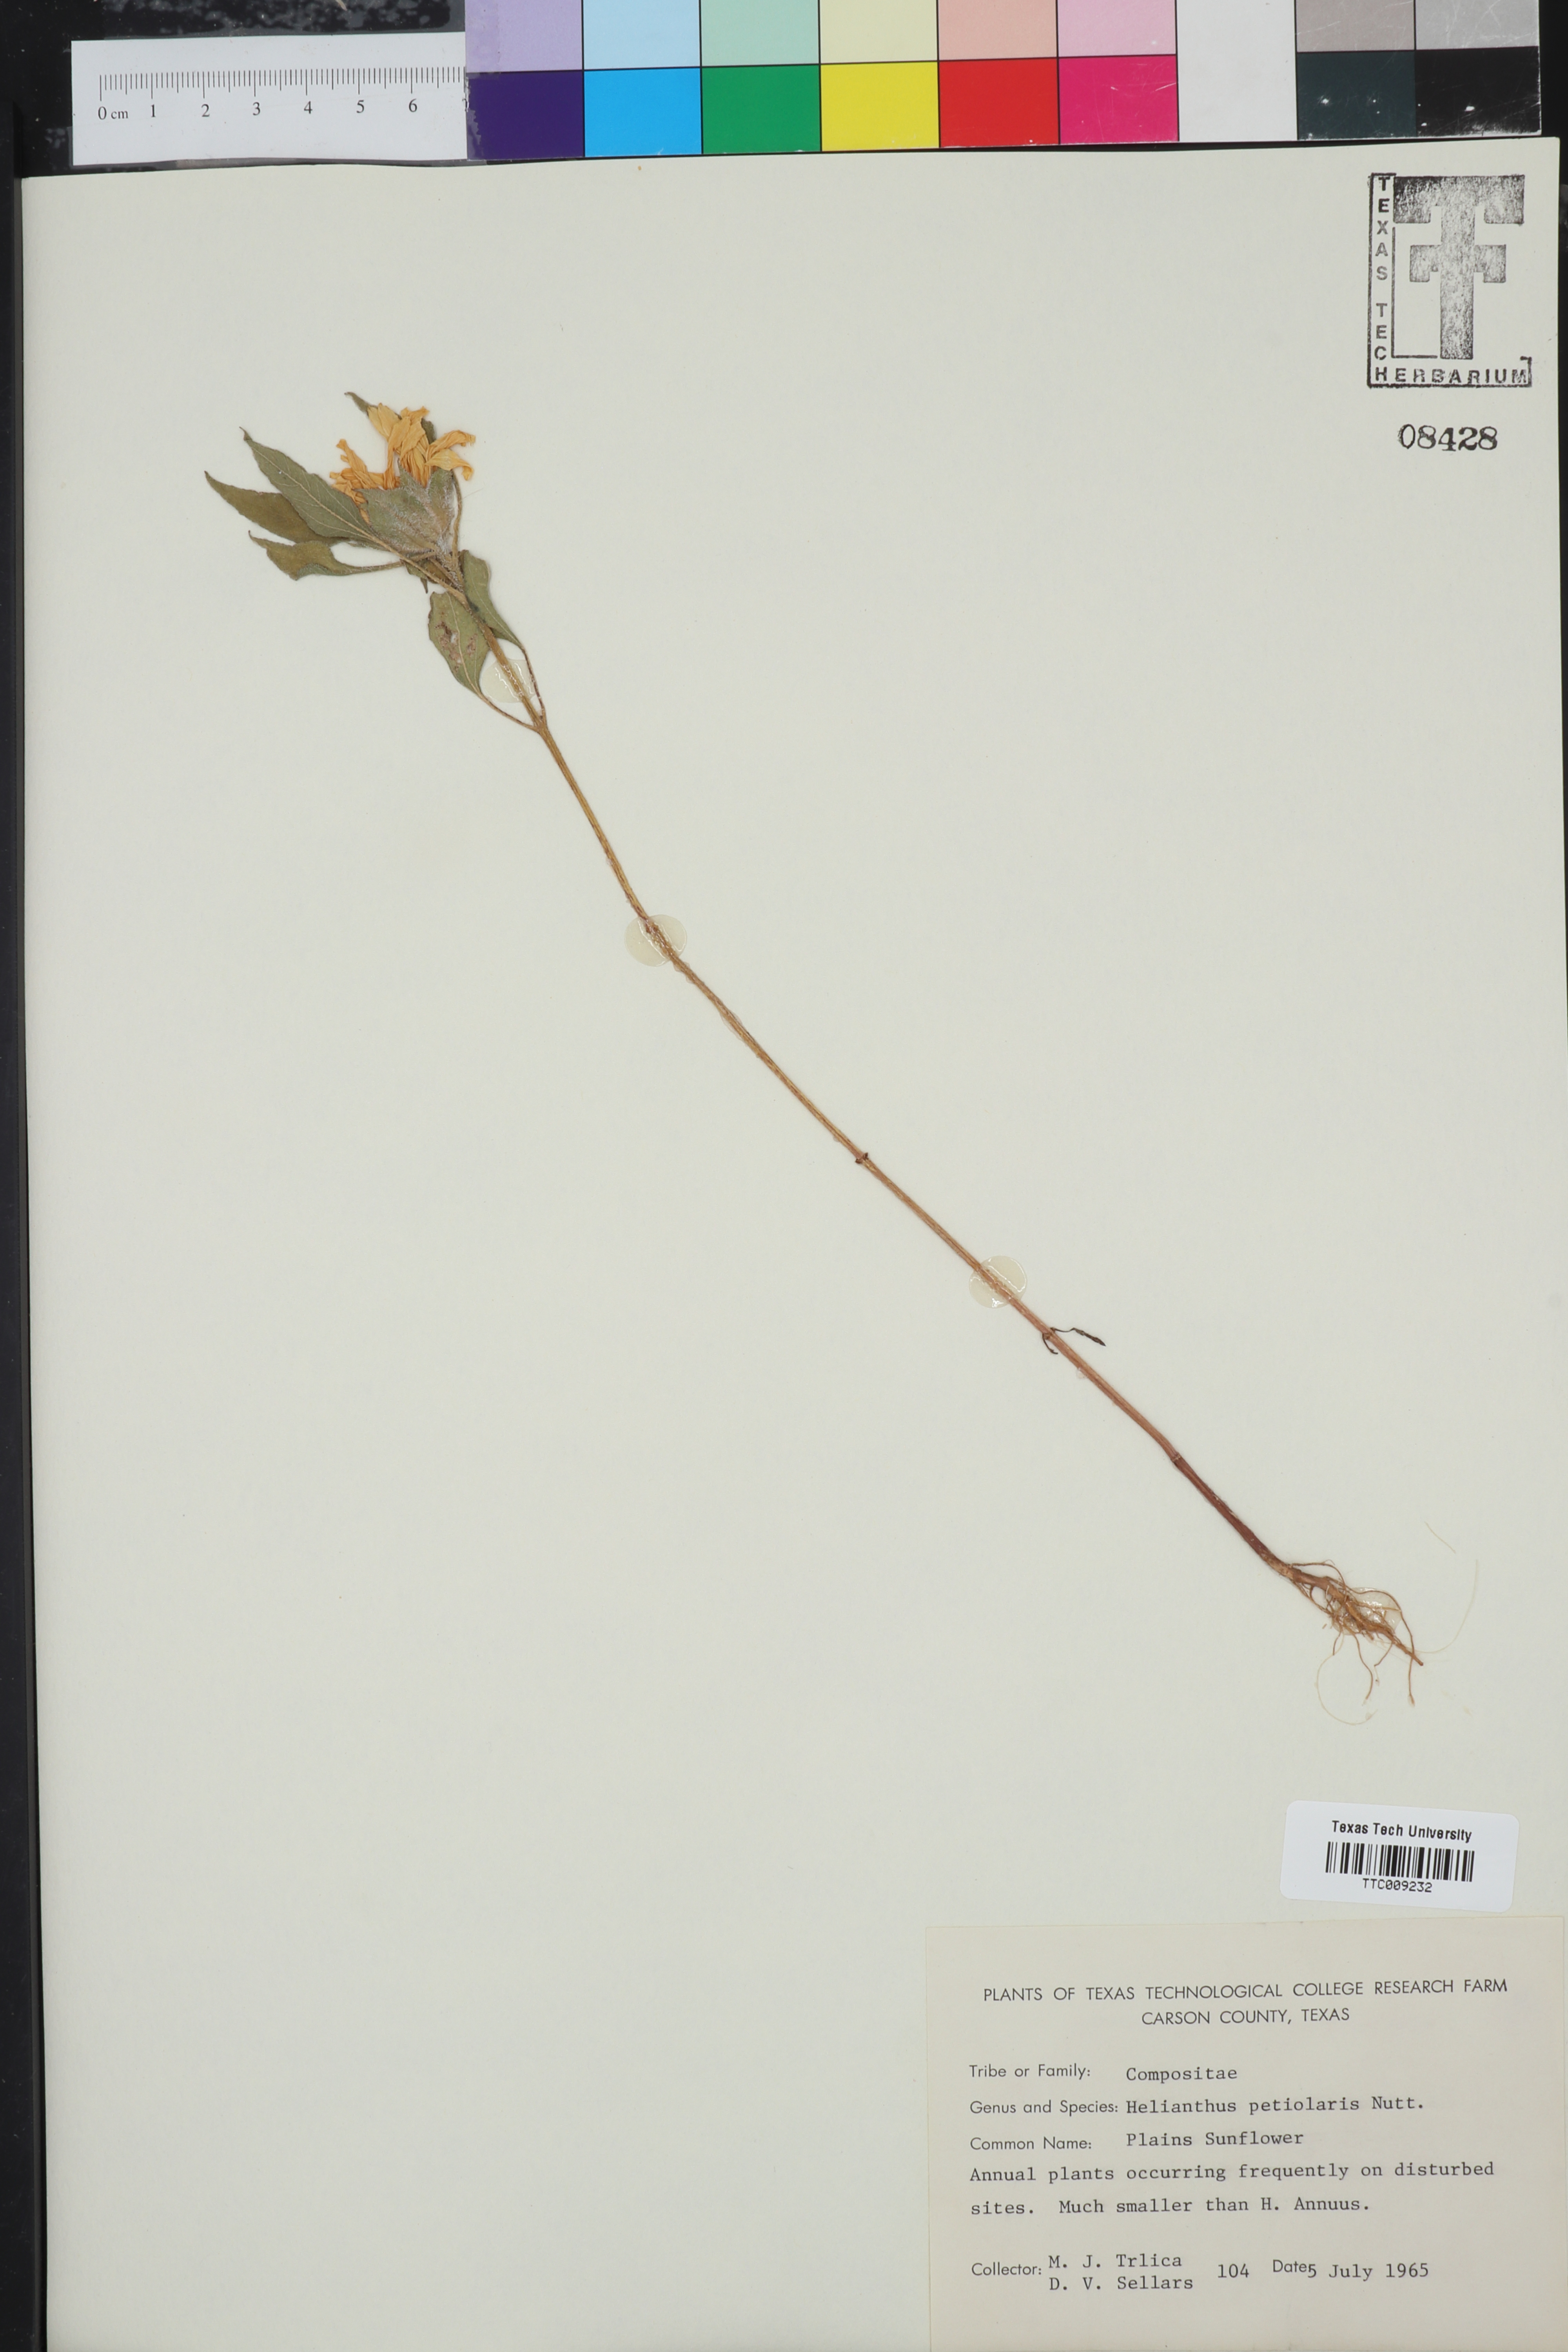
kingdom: Plantae
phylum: Tracheophyta
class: Magnoliopsida
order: Asterales
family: Asteraceae
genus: Helianthus
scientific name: Helianthus petiolaris
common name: Lesser sunflower
